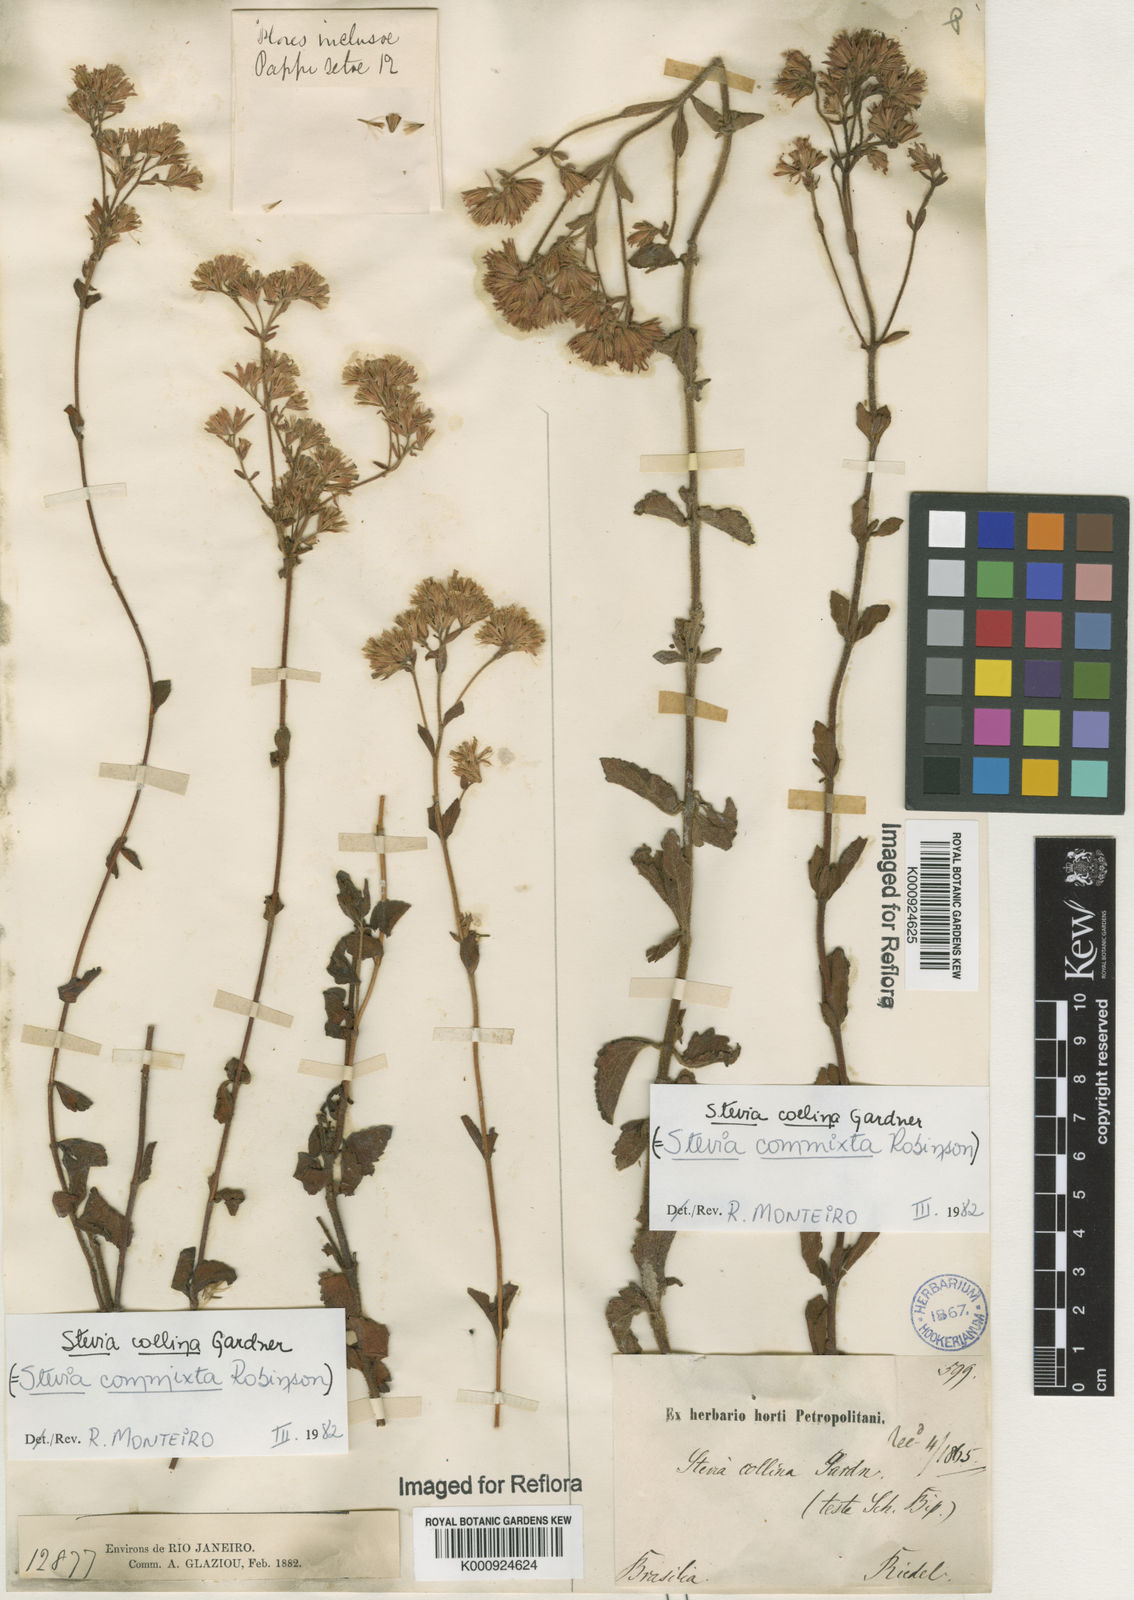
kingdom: Plantae
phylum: Tracheophyta
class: Magnoliopsida
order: Asterales
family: Asteraceae
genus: Stevia
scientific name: Stevia collina
